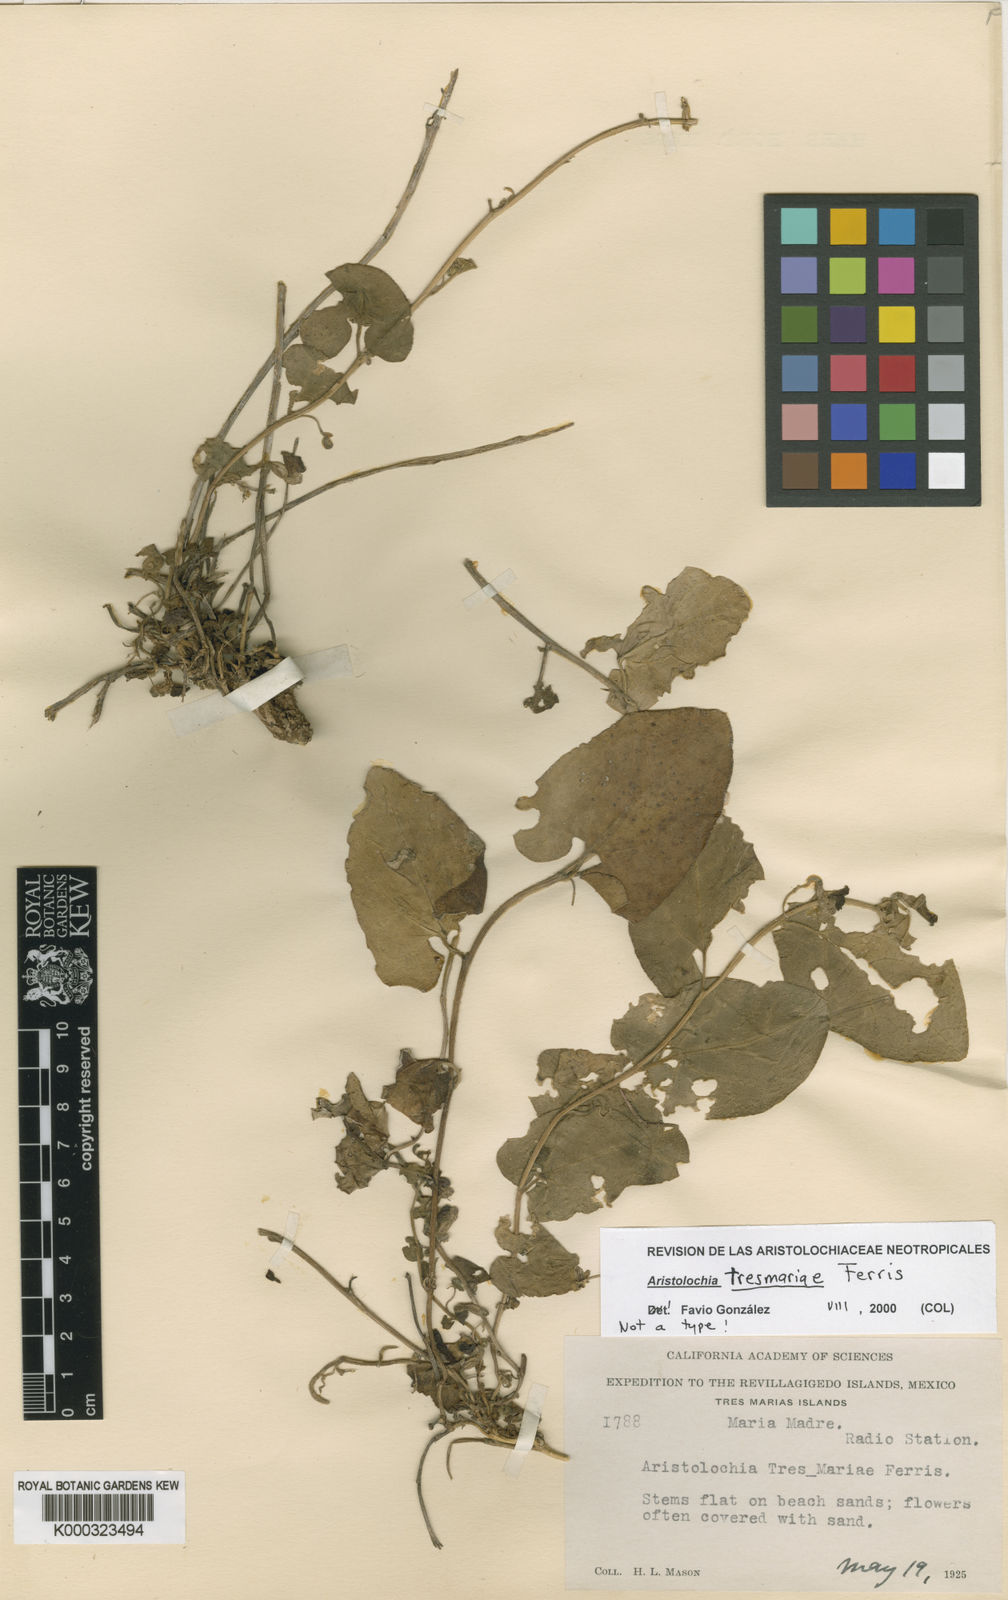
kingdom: Plantae
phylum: Tracheophyta
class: Magnoliopsida
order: Piperales
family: Aristolochiaceae
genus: Aristolochia
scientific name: Aristolochia tresmariae
